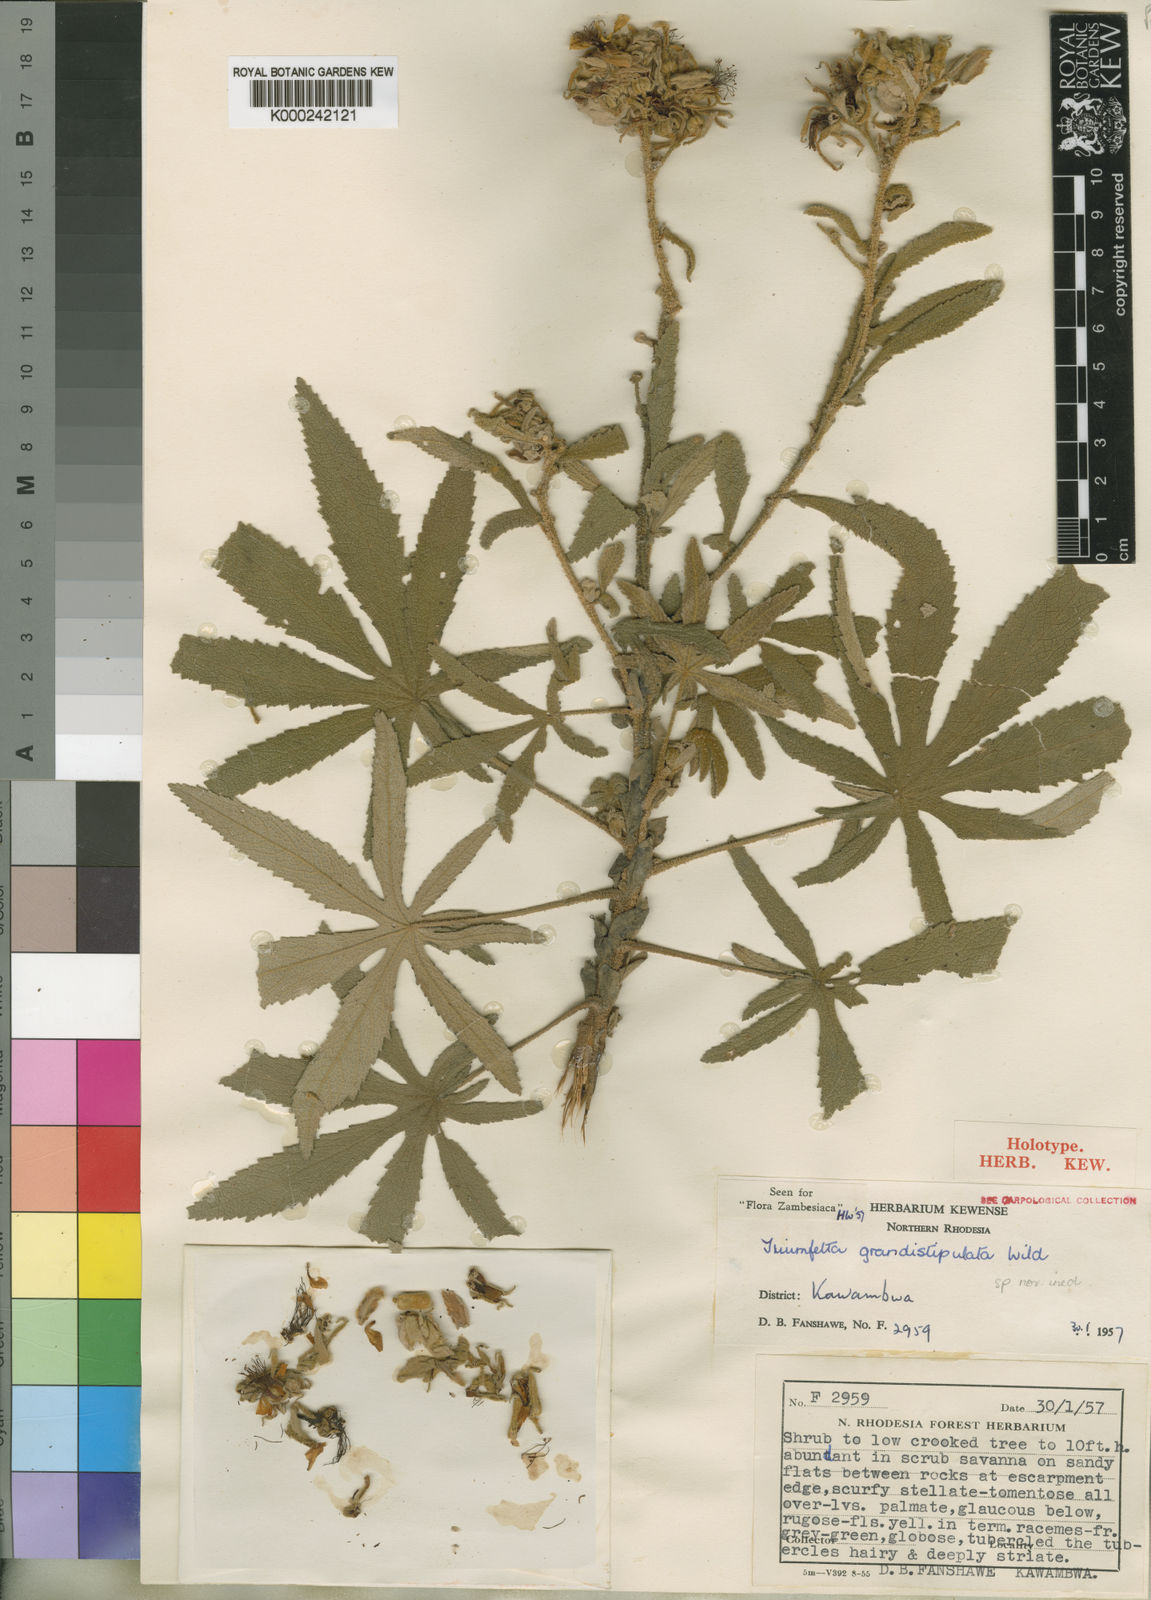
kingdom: Plantae
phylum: Tracheophyta
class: Magnoliopsida
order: Malvales
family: Malvaceae
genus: Triumfetta
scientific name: Triumfetta grandistipulata
